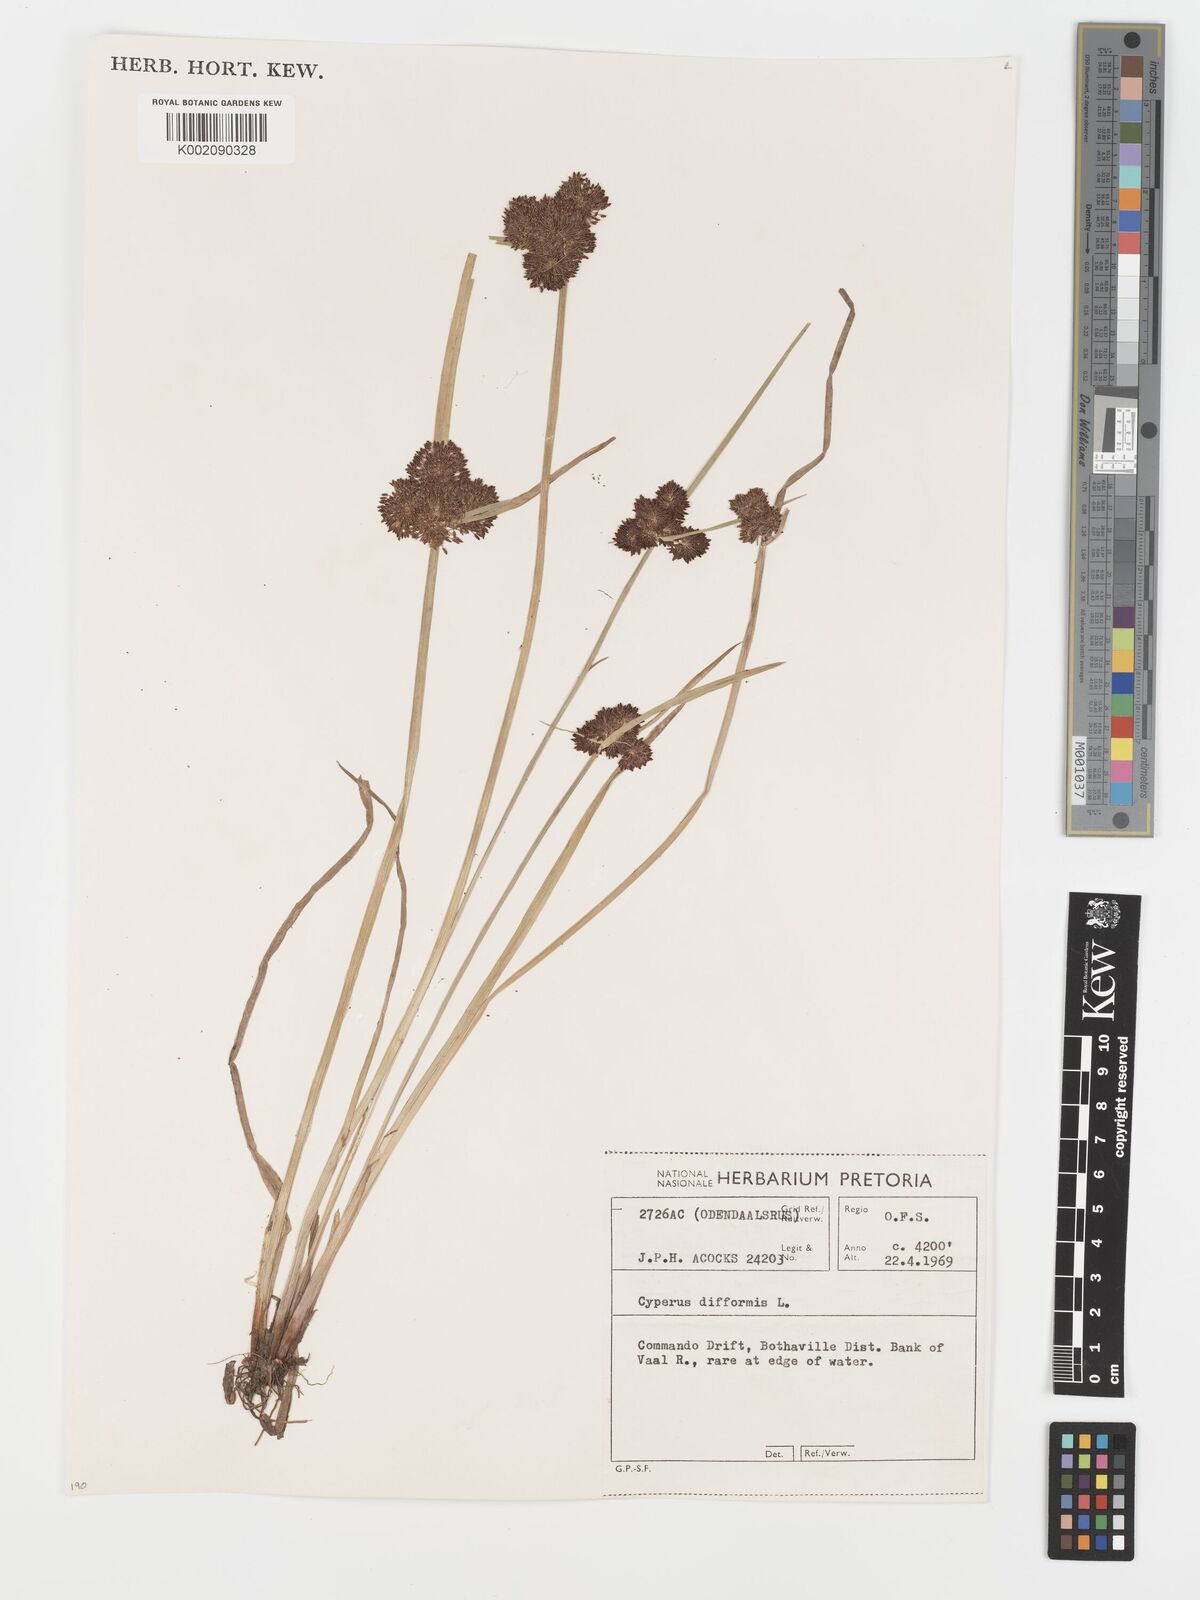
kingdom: Plantae
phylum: Tracheophyta
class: Liliopsida
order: Poales
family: Cyperaceae
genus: Cyperus
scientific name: Cyperus difformis
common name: Variable flatsedge
